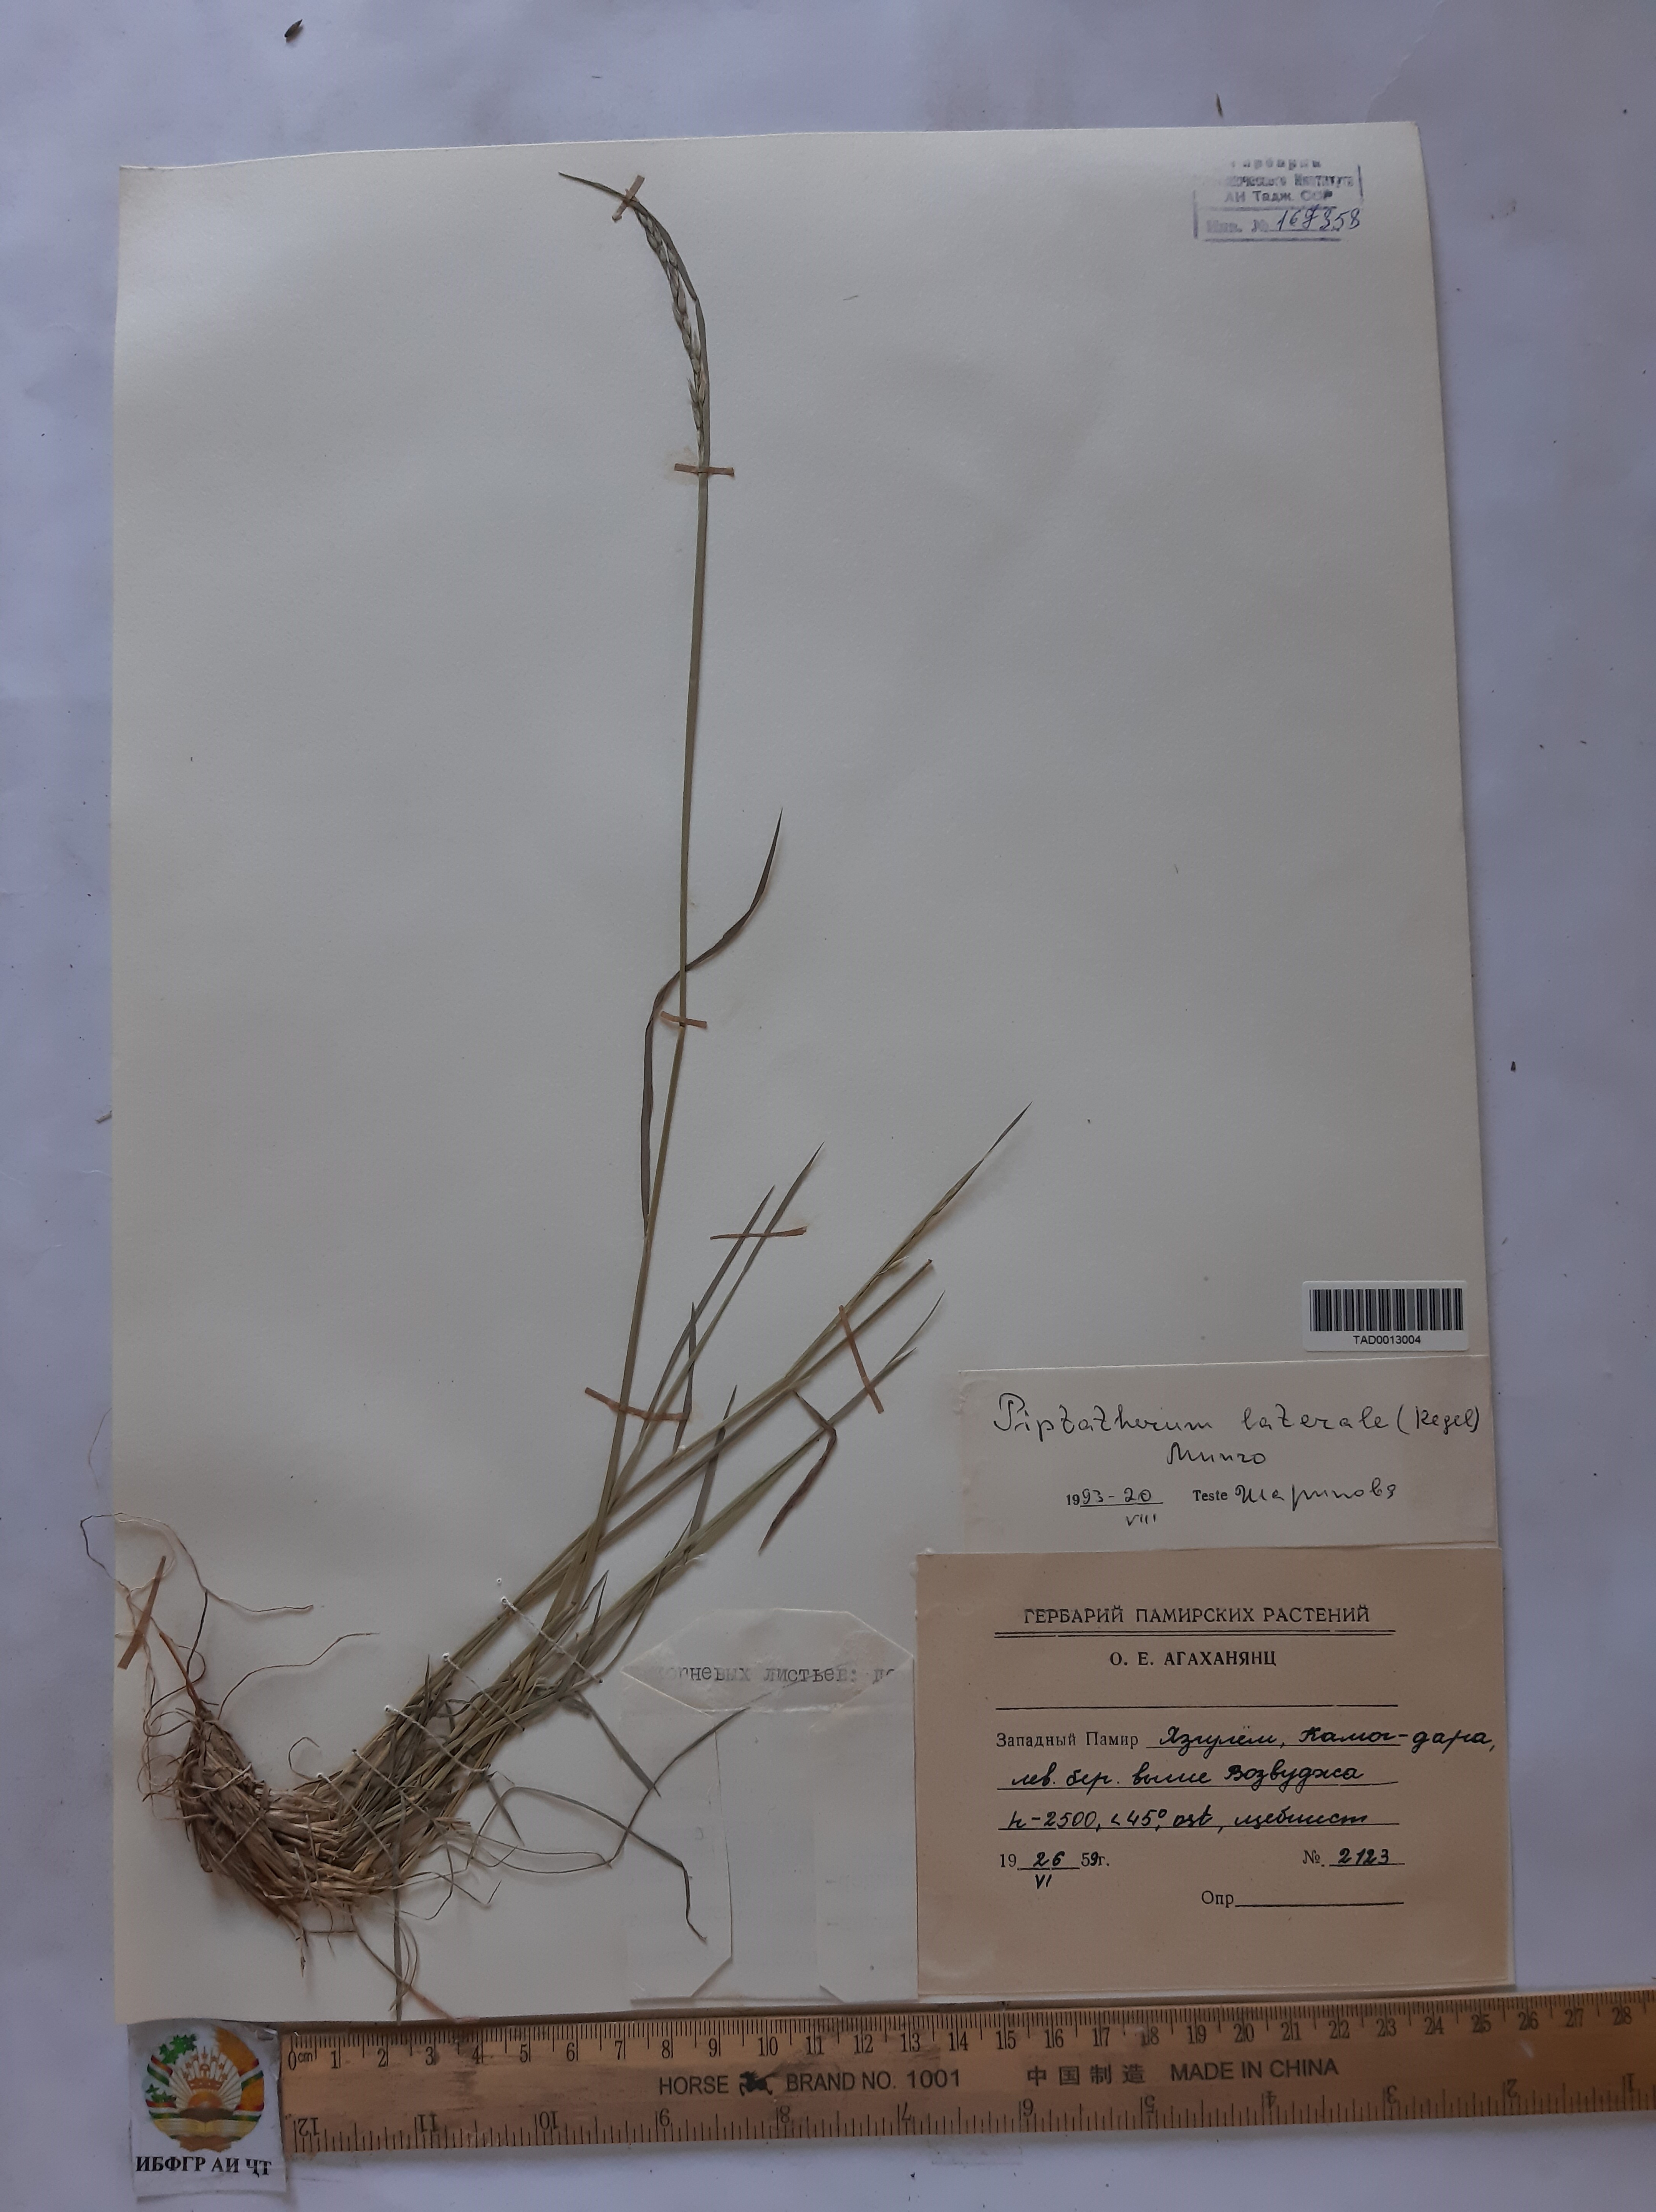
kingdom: Plantae
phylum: Tracheophyta
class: Liliopsida
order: Poales
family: Poaceae
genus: Piptatherum
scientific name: Piptatherum laterale
